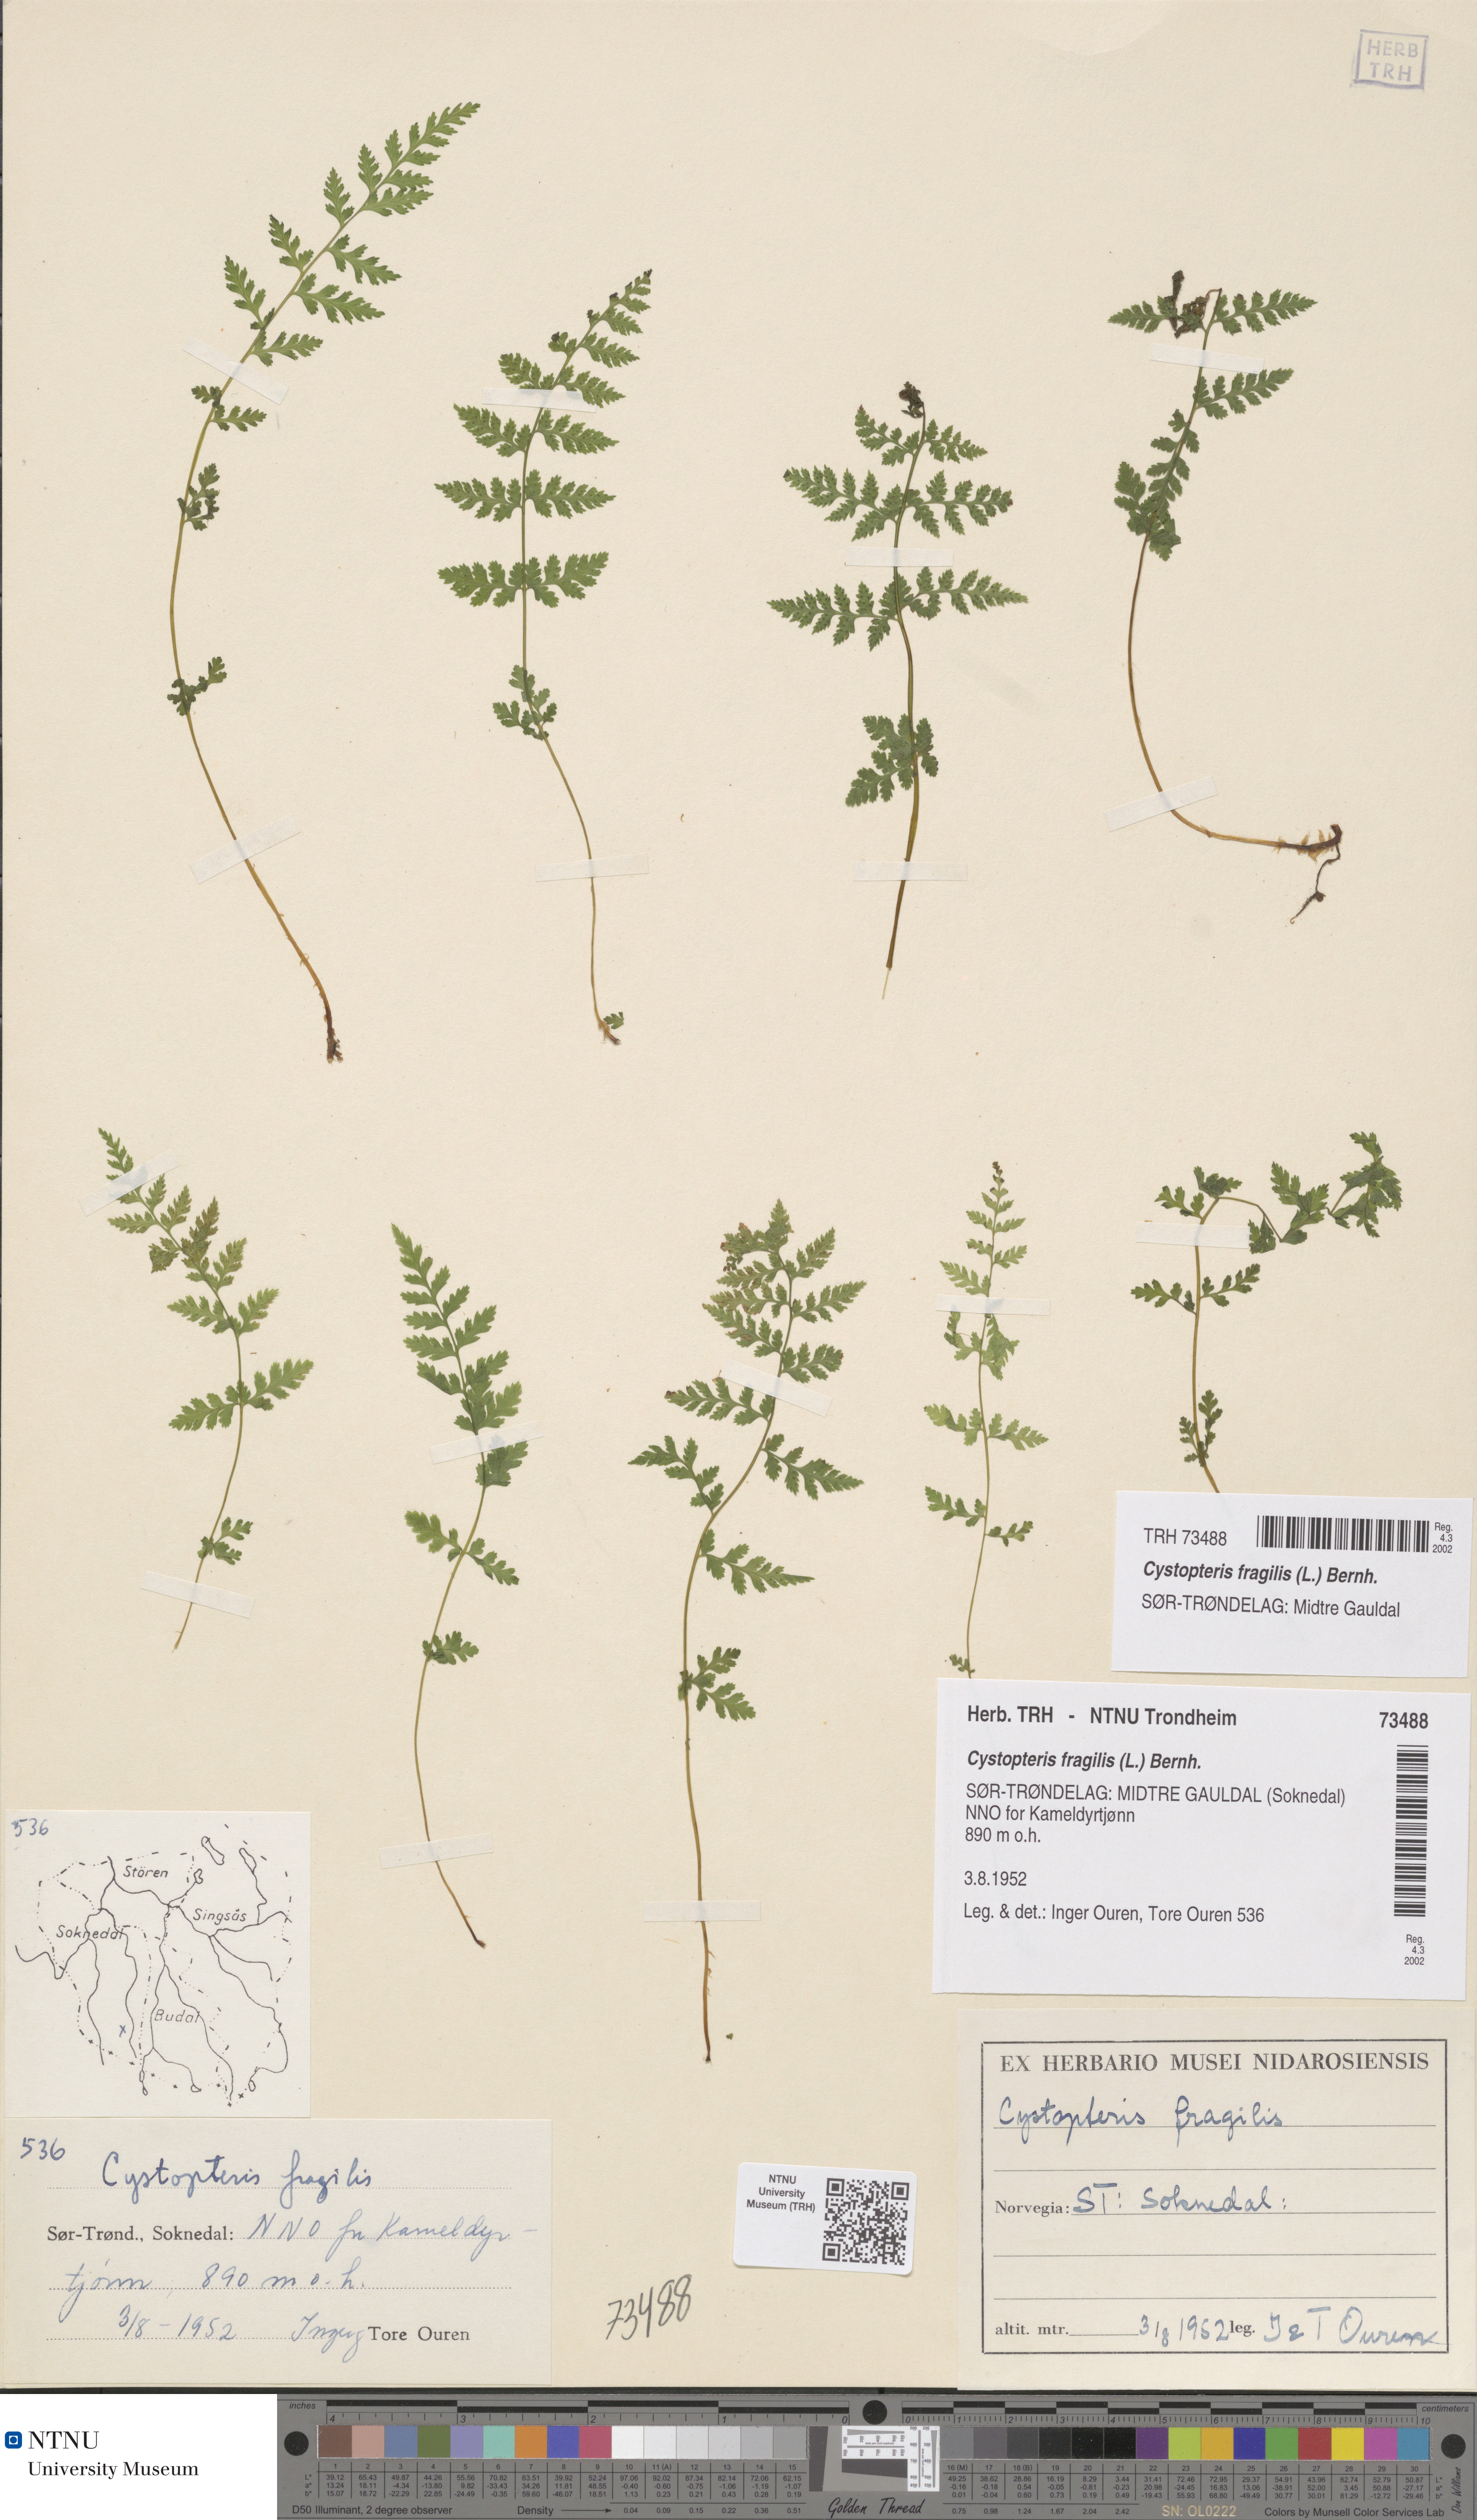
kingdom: Plantae
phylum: Tracheophyta
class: Polypodiopsida
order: Polypodiales
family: Cystopteridaceae
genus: Cystopteris
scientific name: Cystopteris fragilis
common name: Brittle bladder fern
